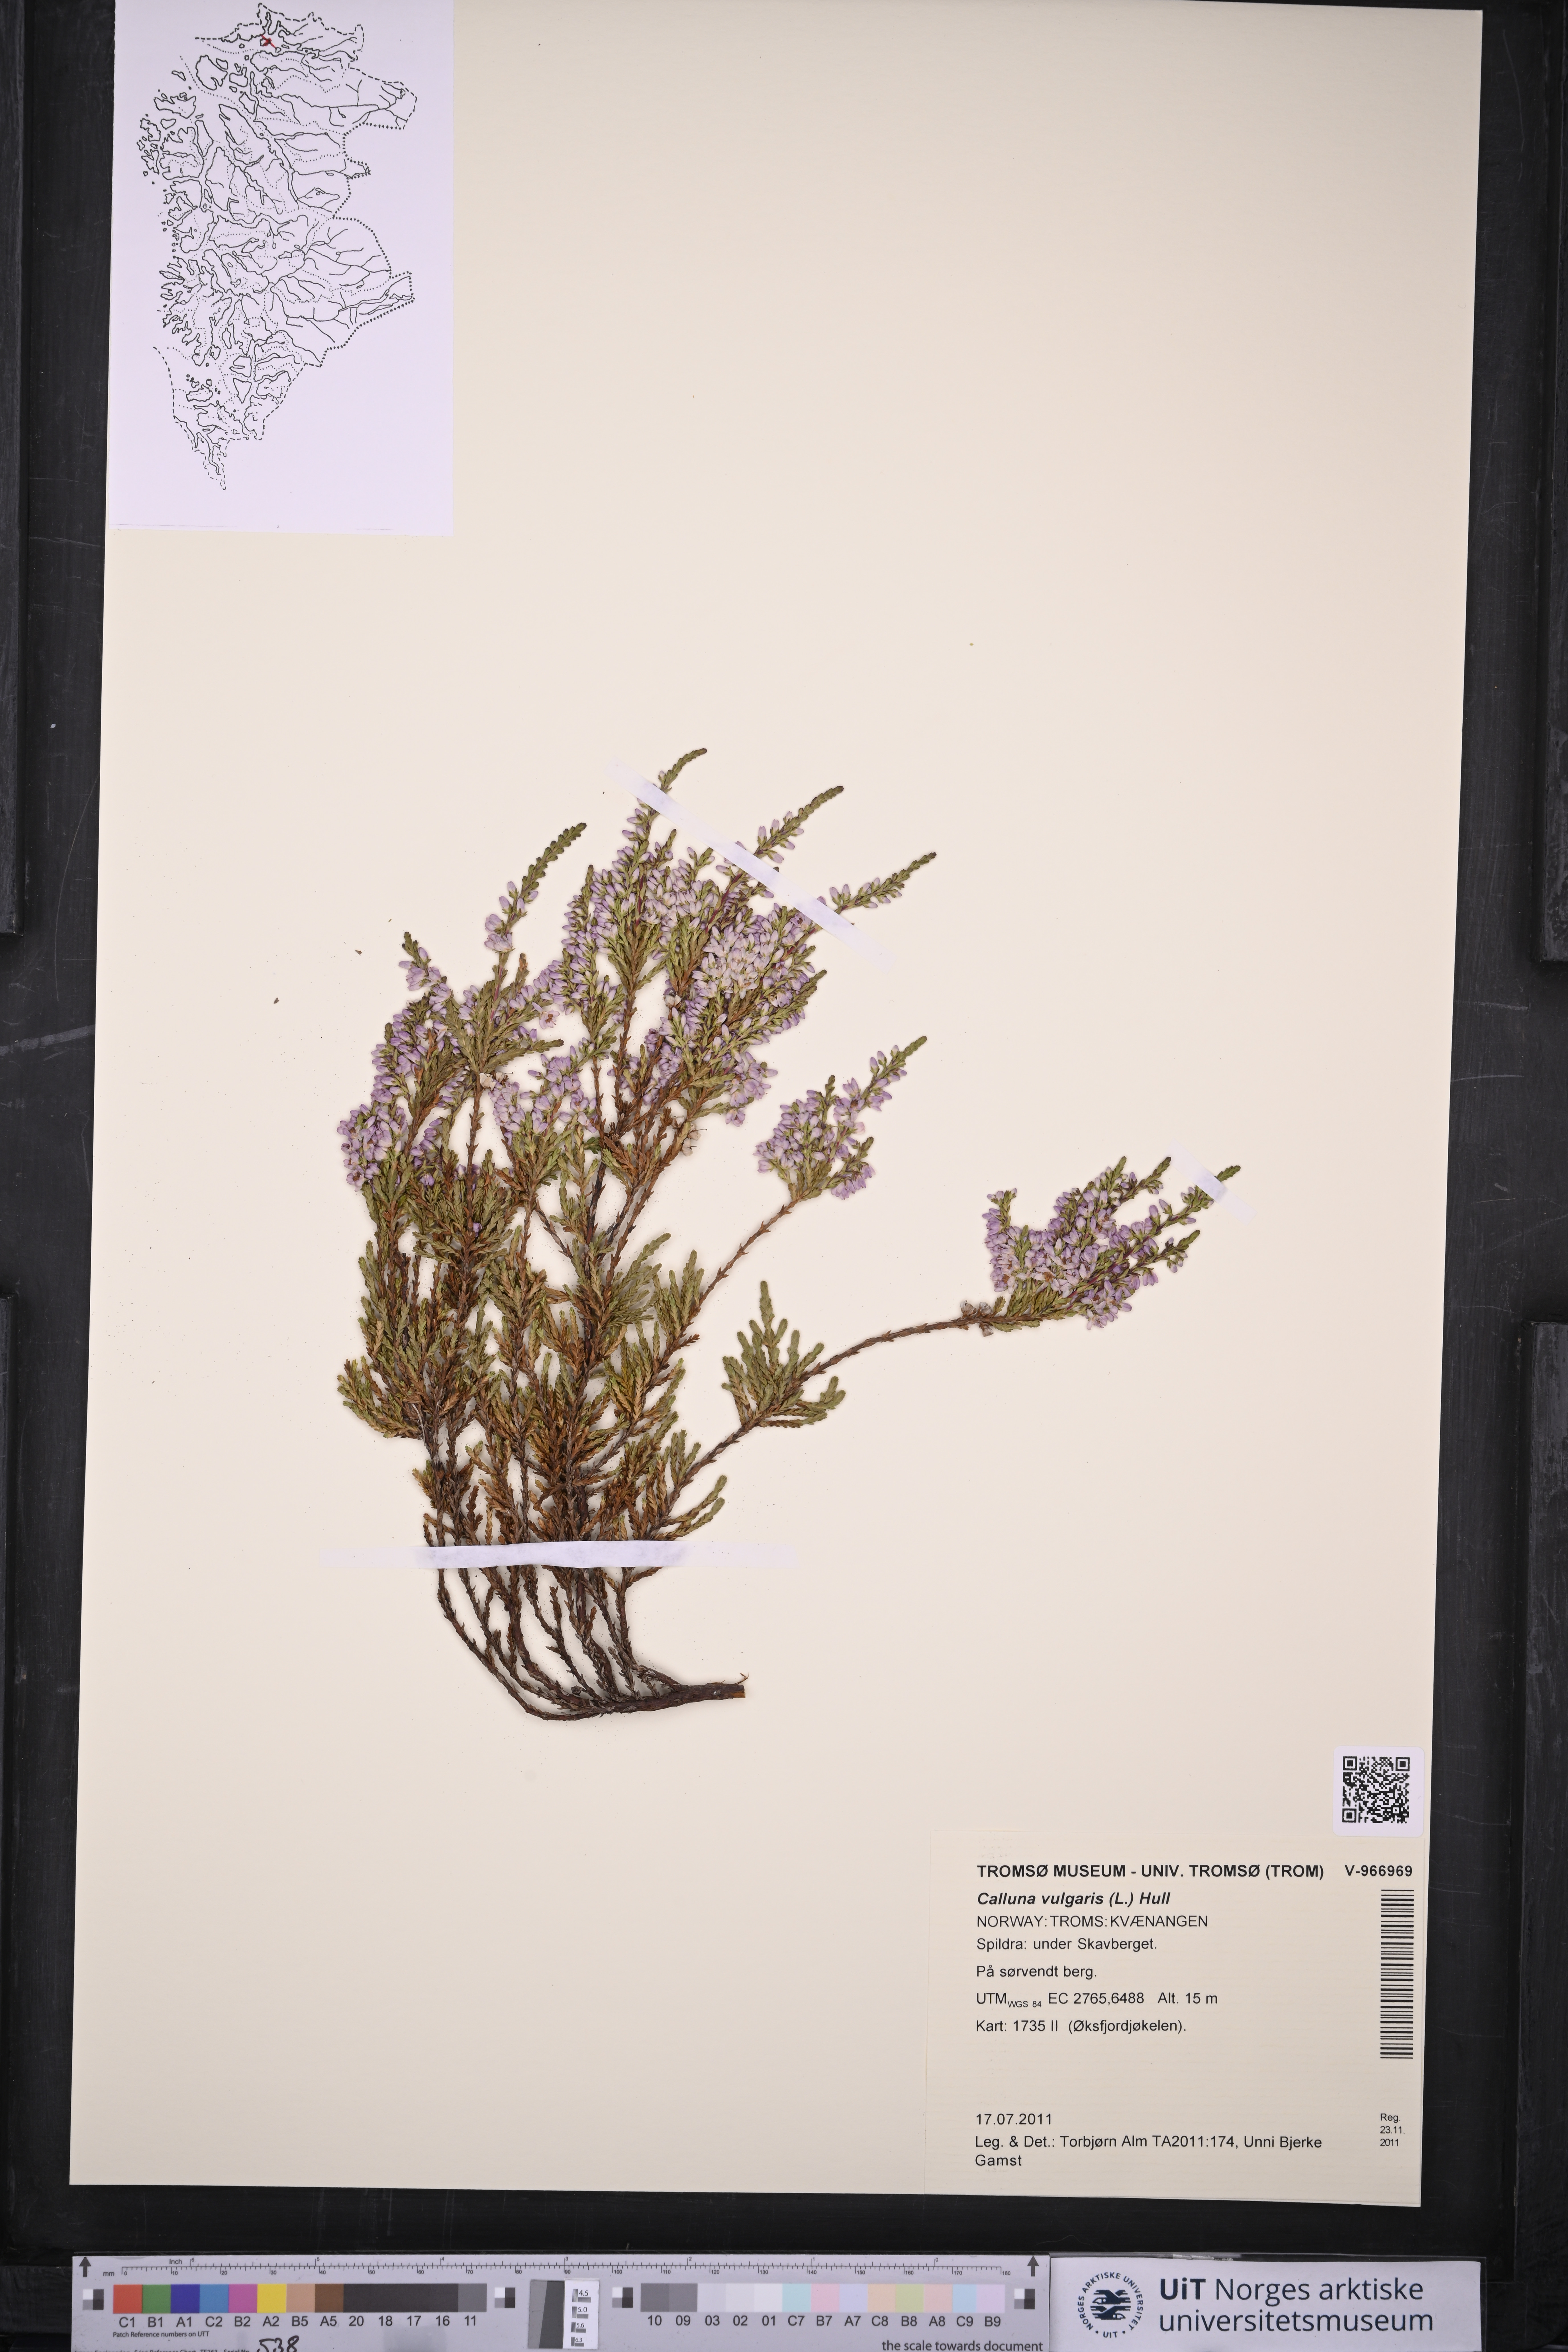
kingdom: Plantae
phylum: Tracheophyta
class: Magnoliopsida
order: Ericales
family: Ericaceae
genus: Calluna
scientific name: Calluna vulgaris
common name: Heather
